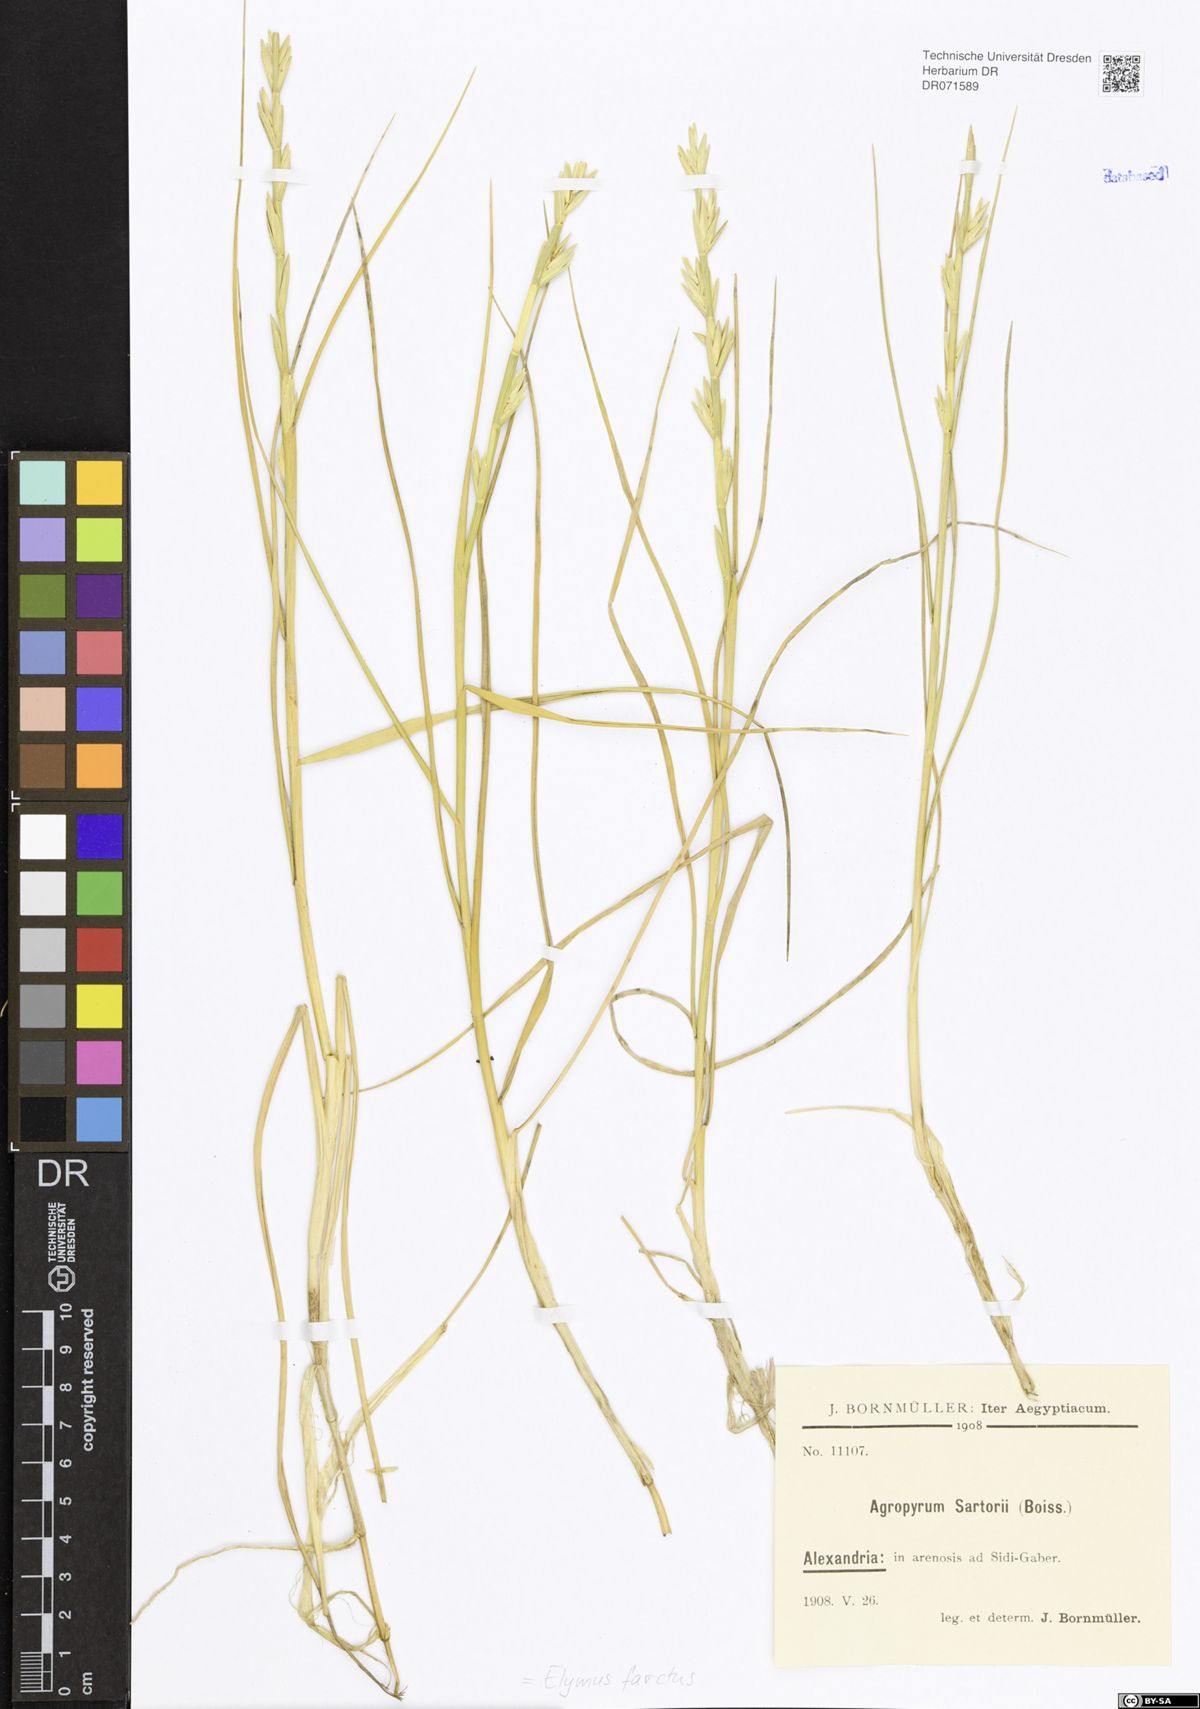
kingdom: Plantae
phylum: Tracheophyta
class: Liliopsida
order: Poales
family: Poaceae
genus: Thinopyrum
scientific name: Thinopyrum junceum
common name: Russian wheatgrass
